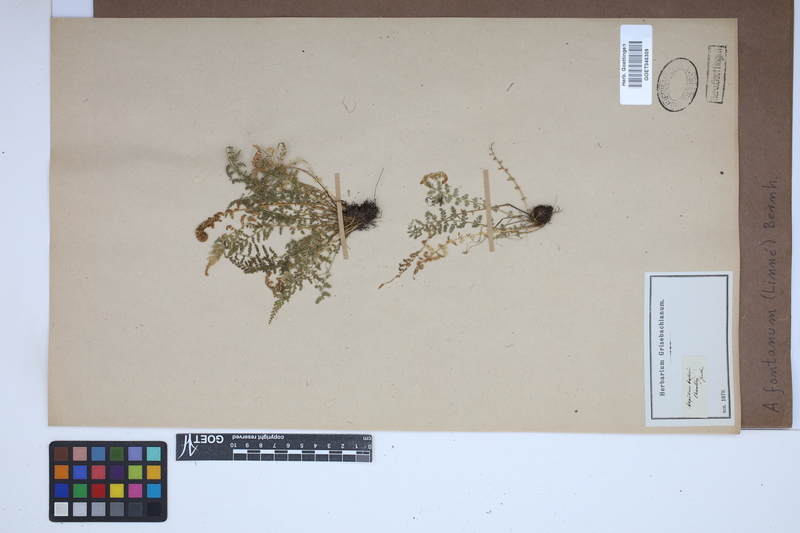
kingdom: Plantae
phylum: Tracheophyta
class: Polypodiopsida
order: Polypodiales
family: Aspleniaceae
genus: Asplenium
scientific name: Asplenium fontanum
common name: Fountain spleenwort
